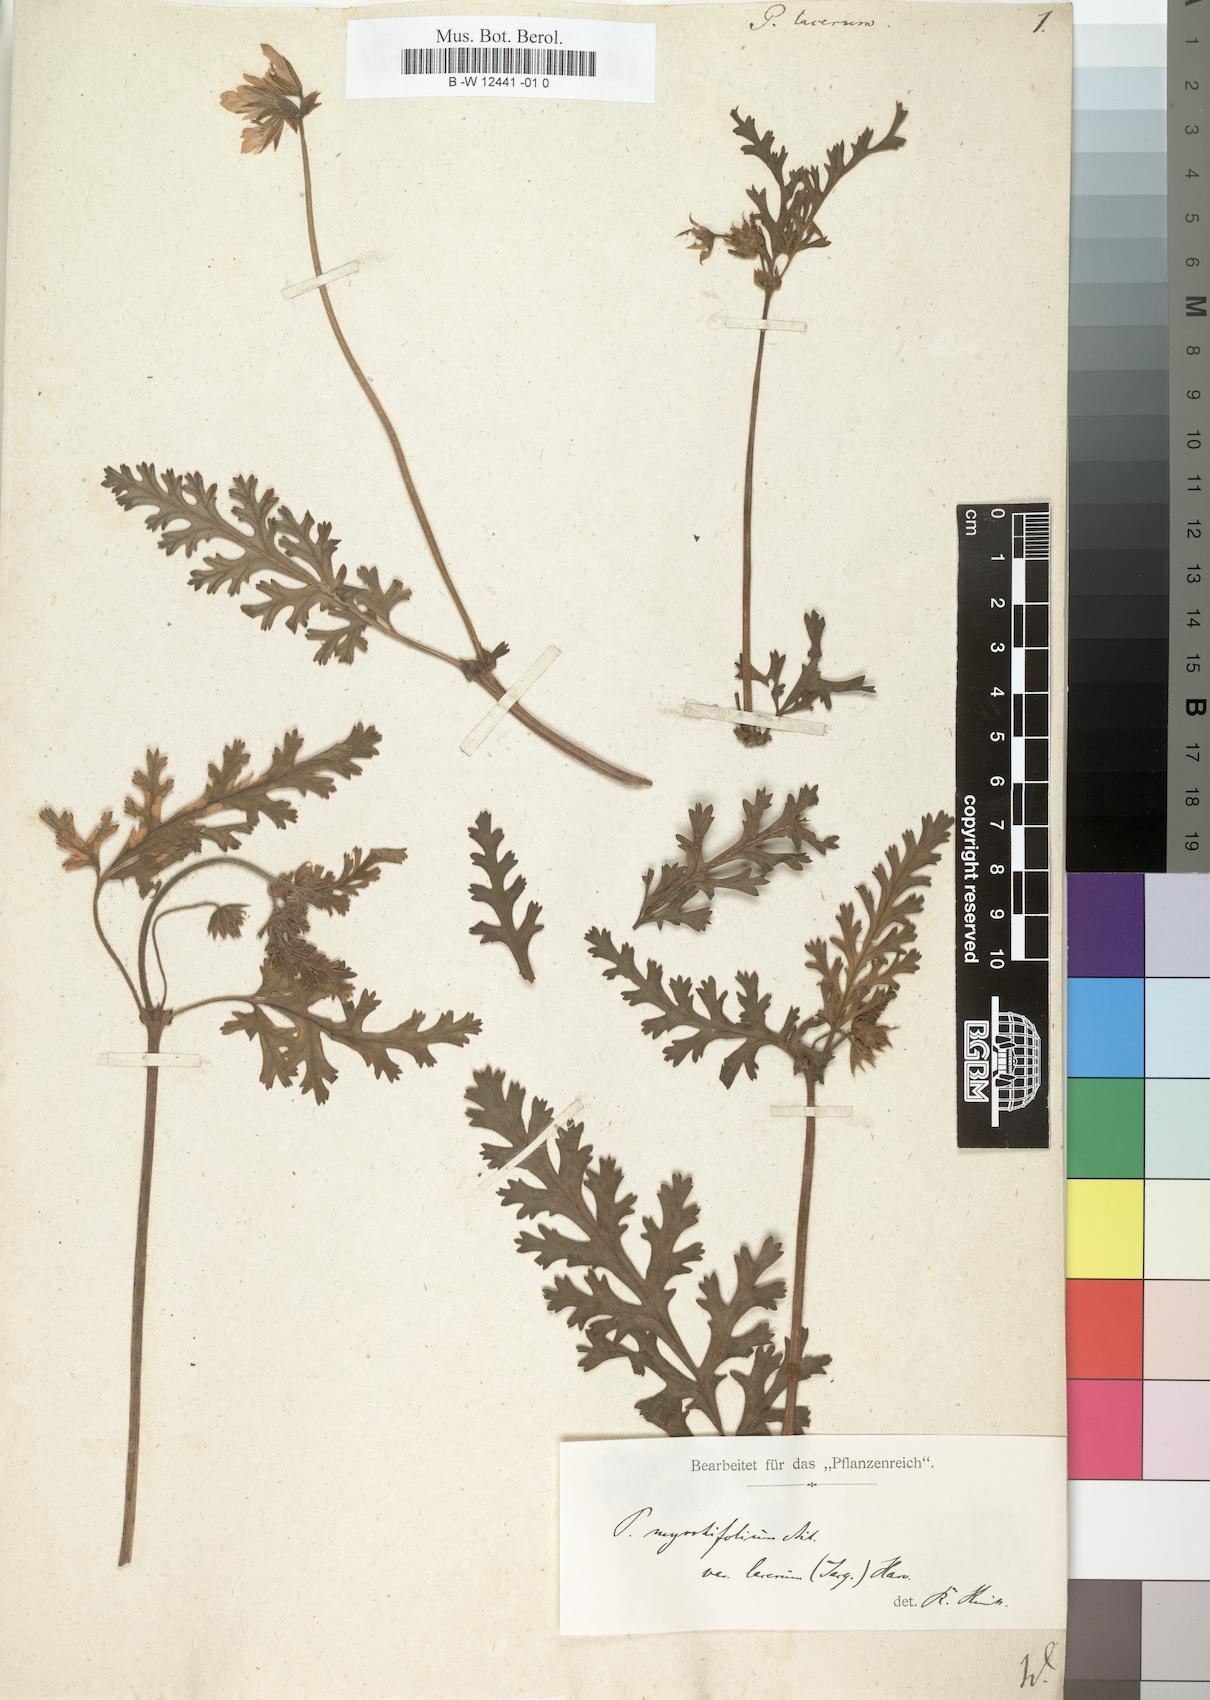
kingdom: Plantae
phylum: Tracheophyta
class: Magnoliopsida
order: Geraniales
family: Geraniaceae
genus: Pelargonium
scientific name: Pelargonium myrrhifolium
